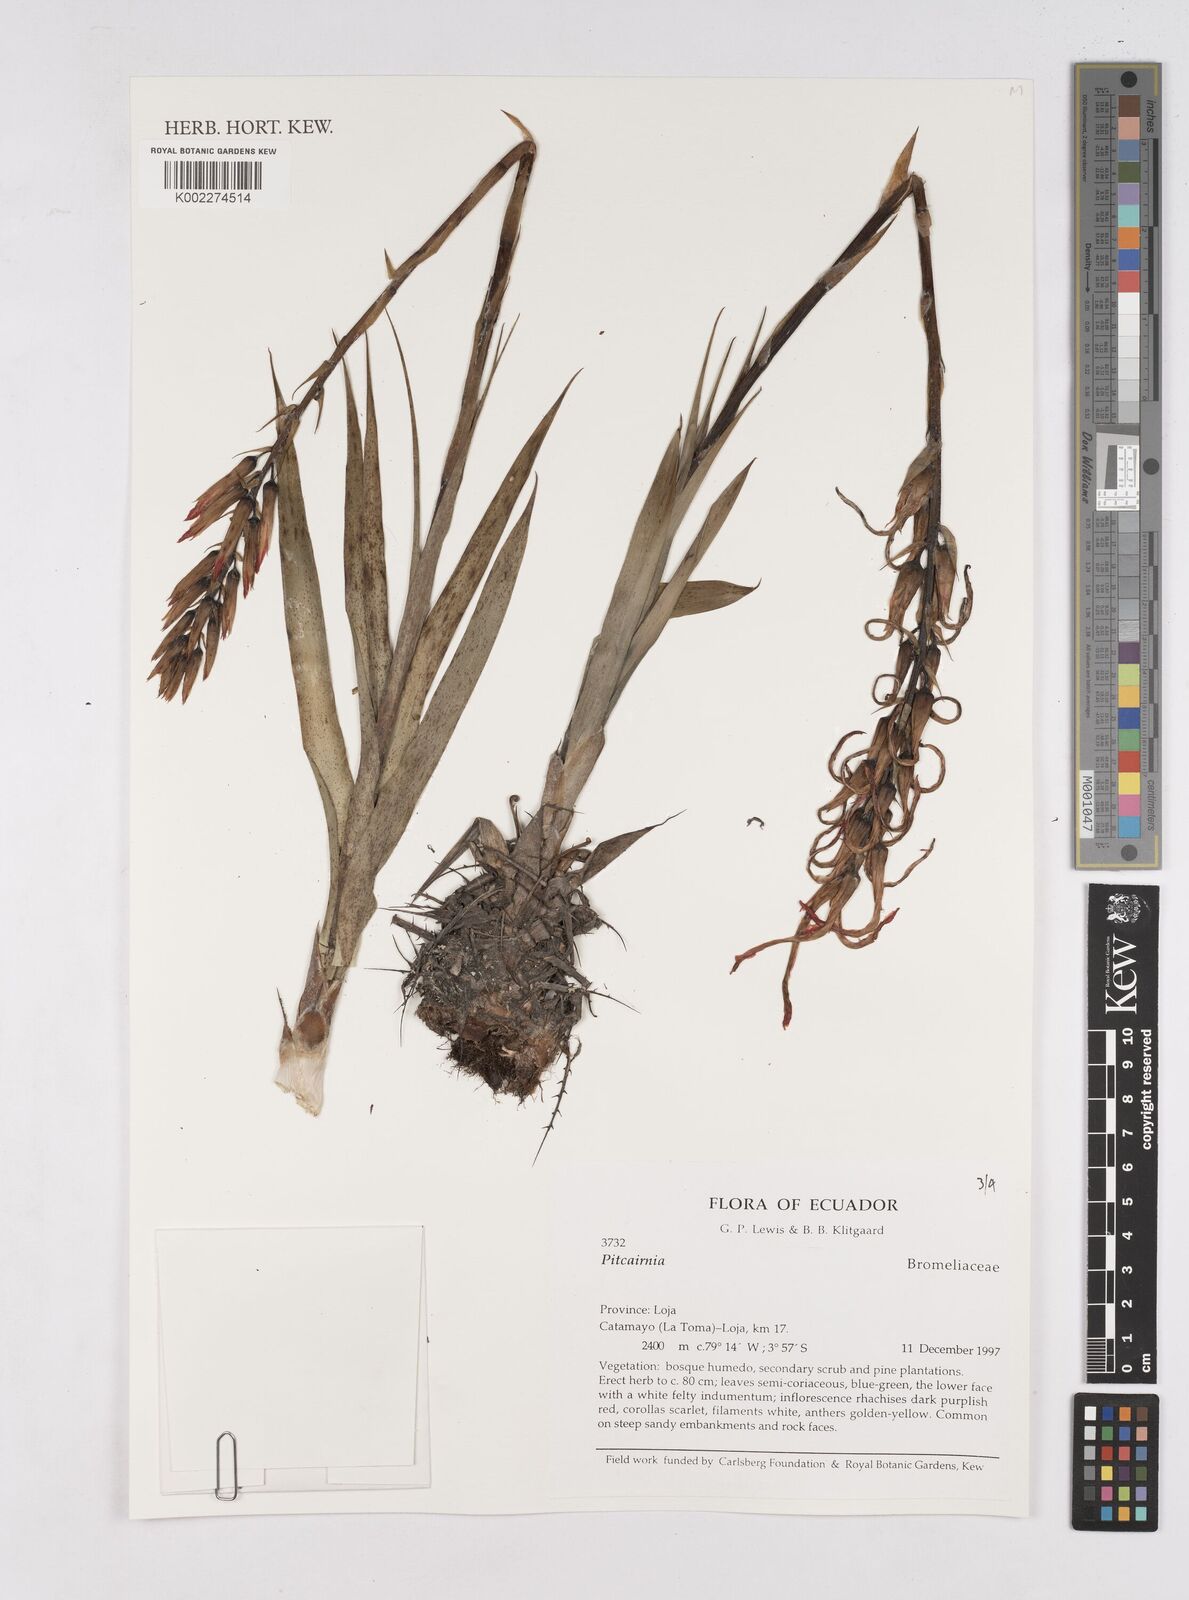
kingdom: Plantae
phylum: Tracheophyta
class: Liliopsida
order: Poales
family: Bromeliaceae
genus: Pitcairnia
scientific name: Pitcairnia
